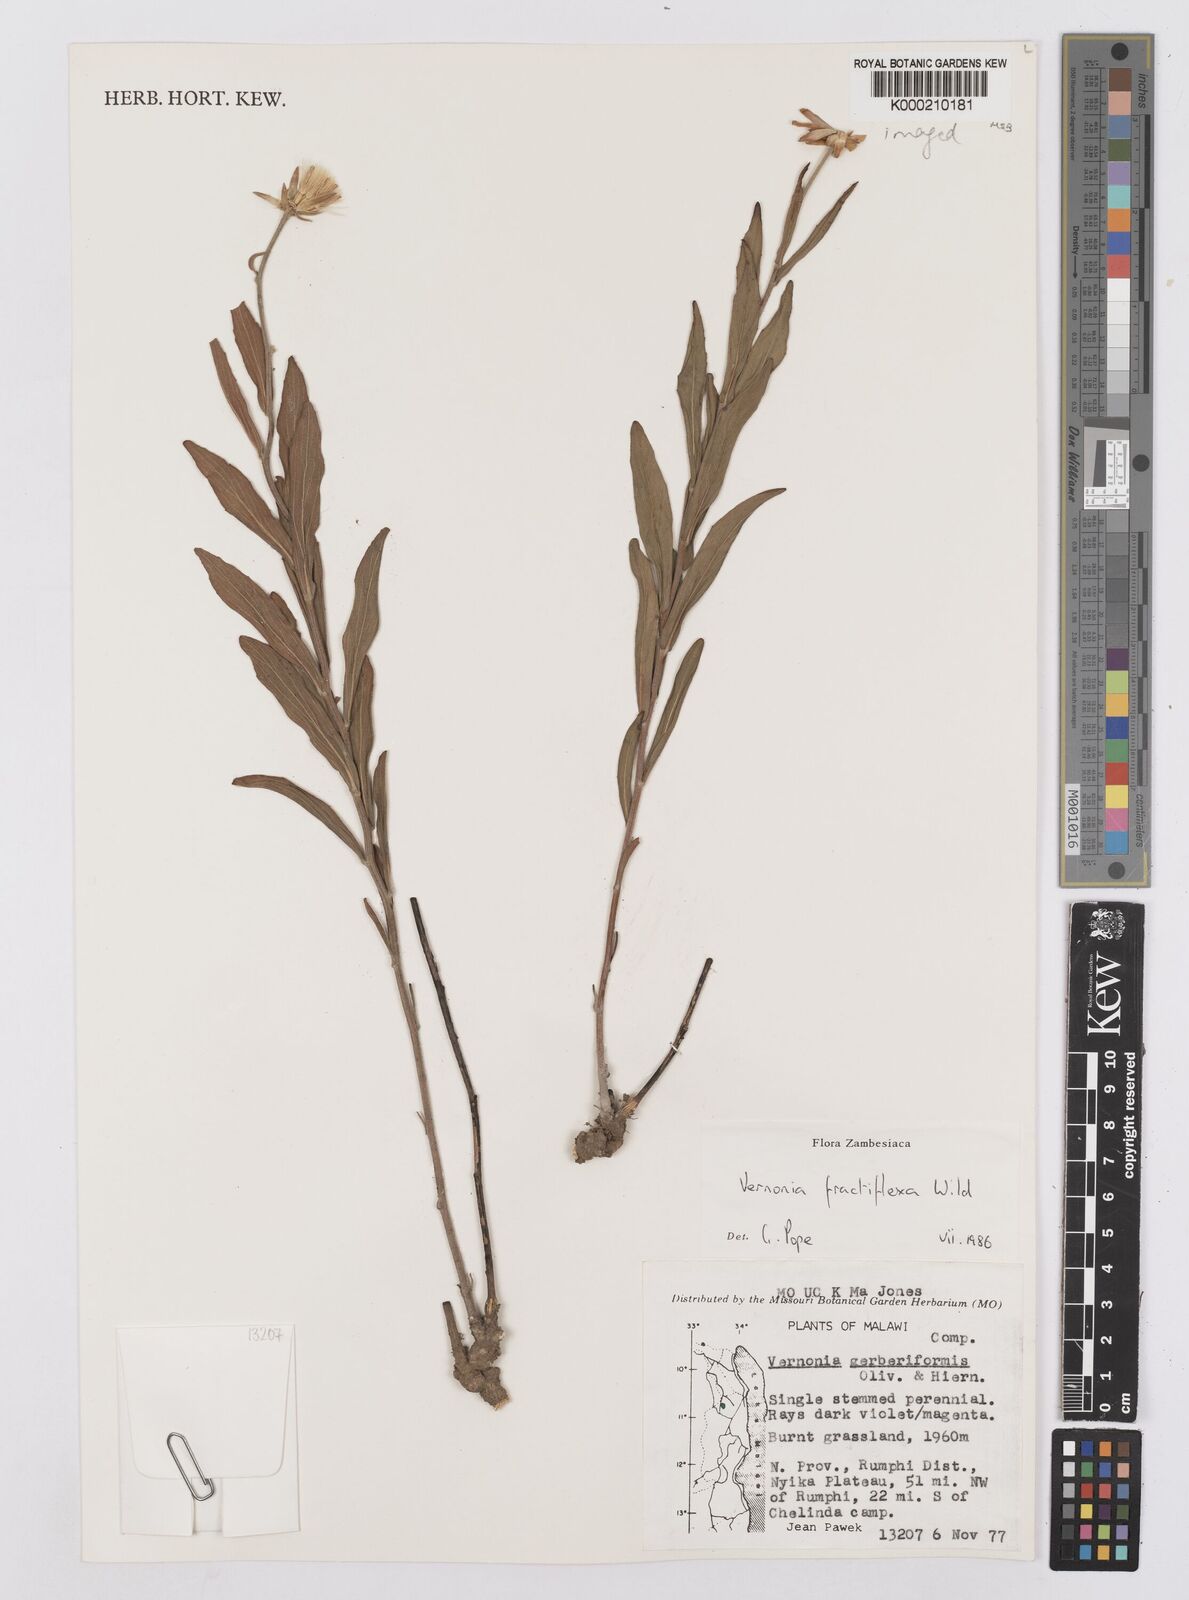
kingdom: Plantae
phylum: Tracheophyta
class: Magnoliopsida
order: Asterales
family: Asteraceae
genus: Vernonia
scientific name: Vernonia fractiflexa
